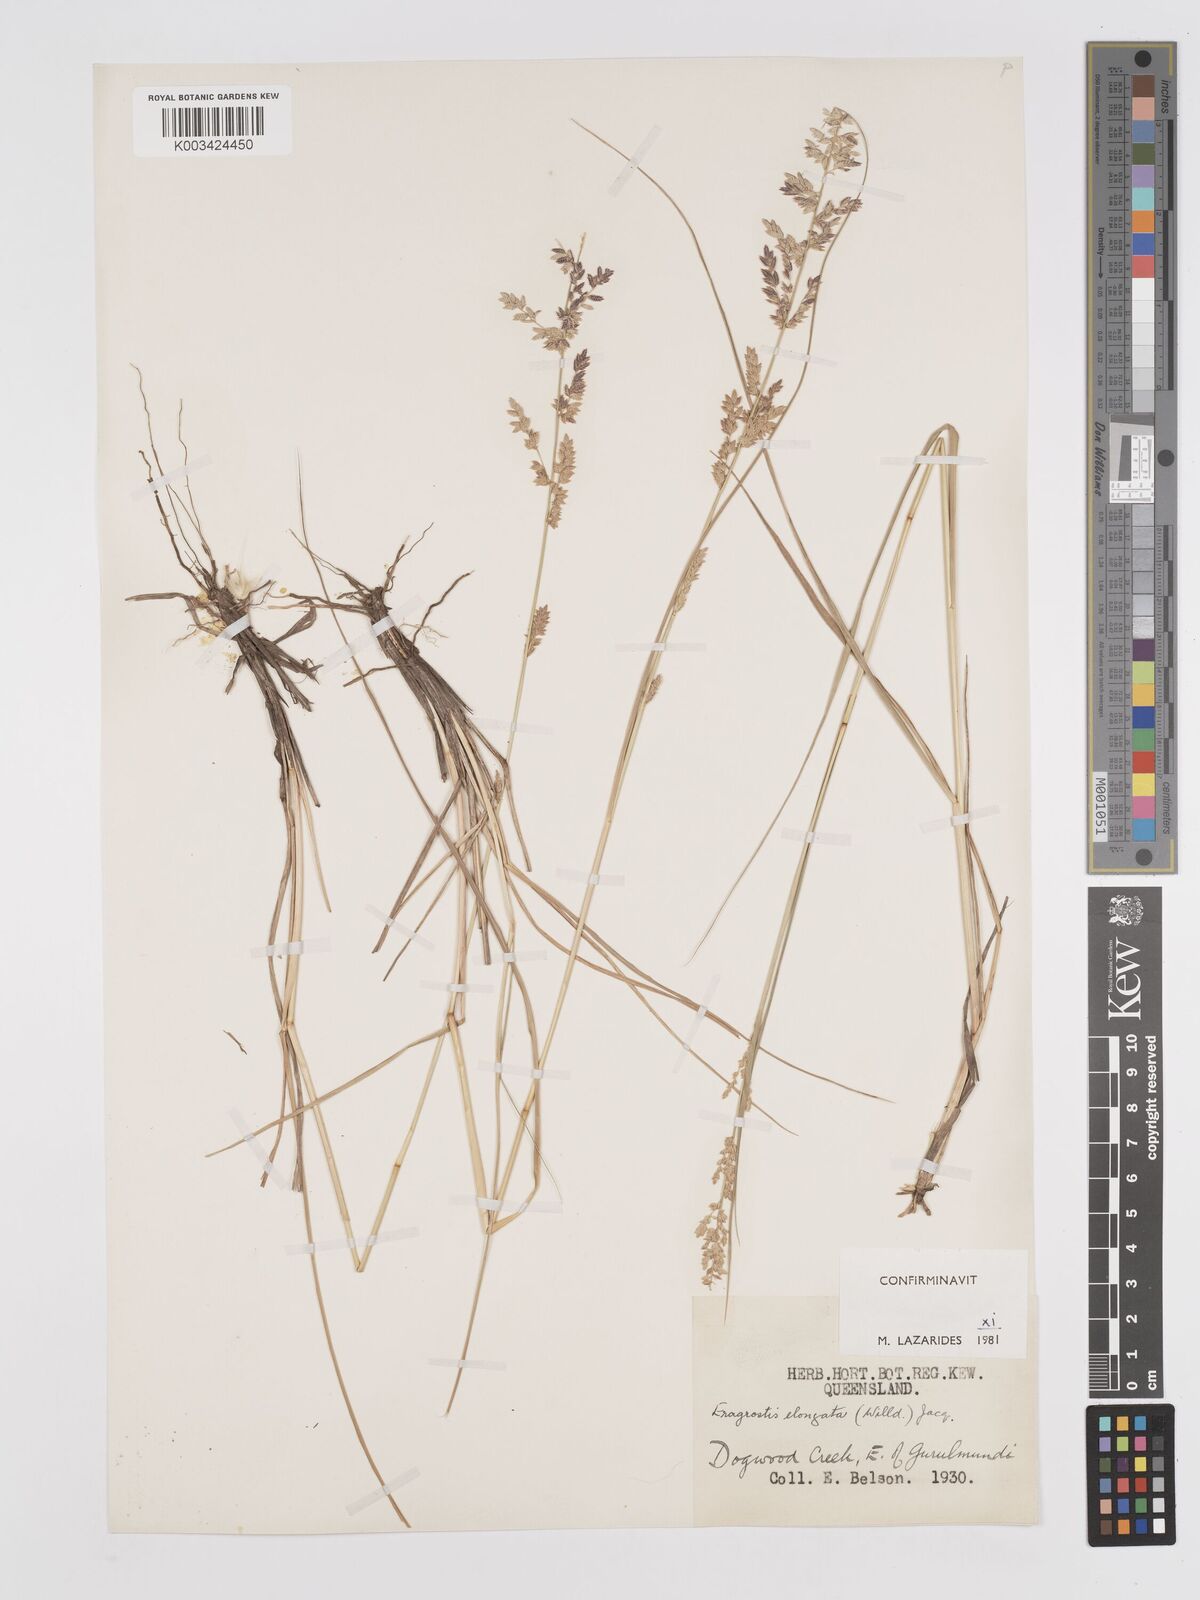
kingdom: Plantae
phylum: Tracheophyta
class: Liliopsida
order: Poales
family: Poaceae
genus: Eragrostis
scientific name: Eragrostis elongata
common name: Long lovegrass
